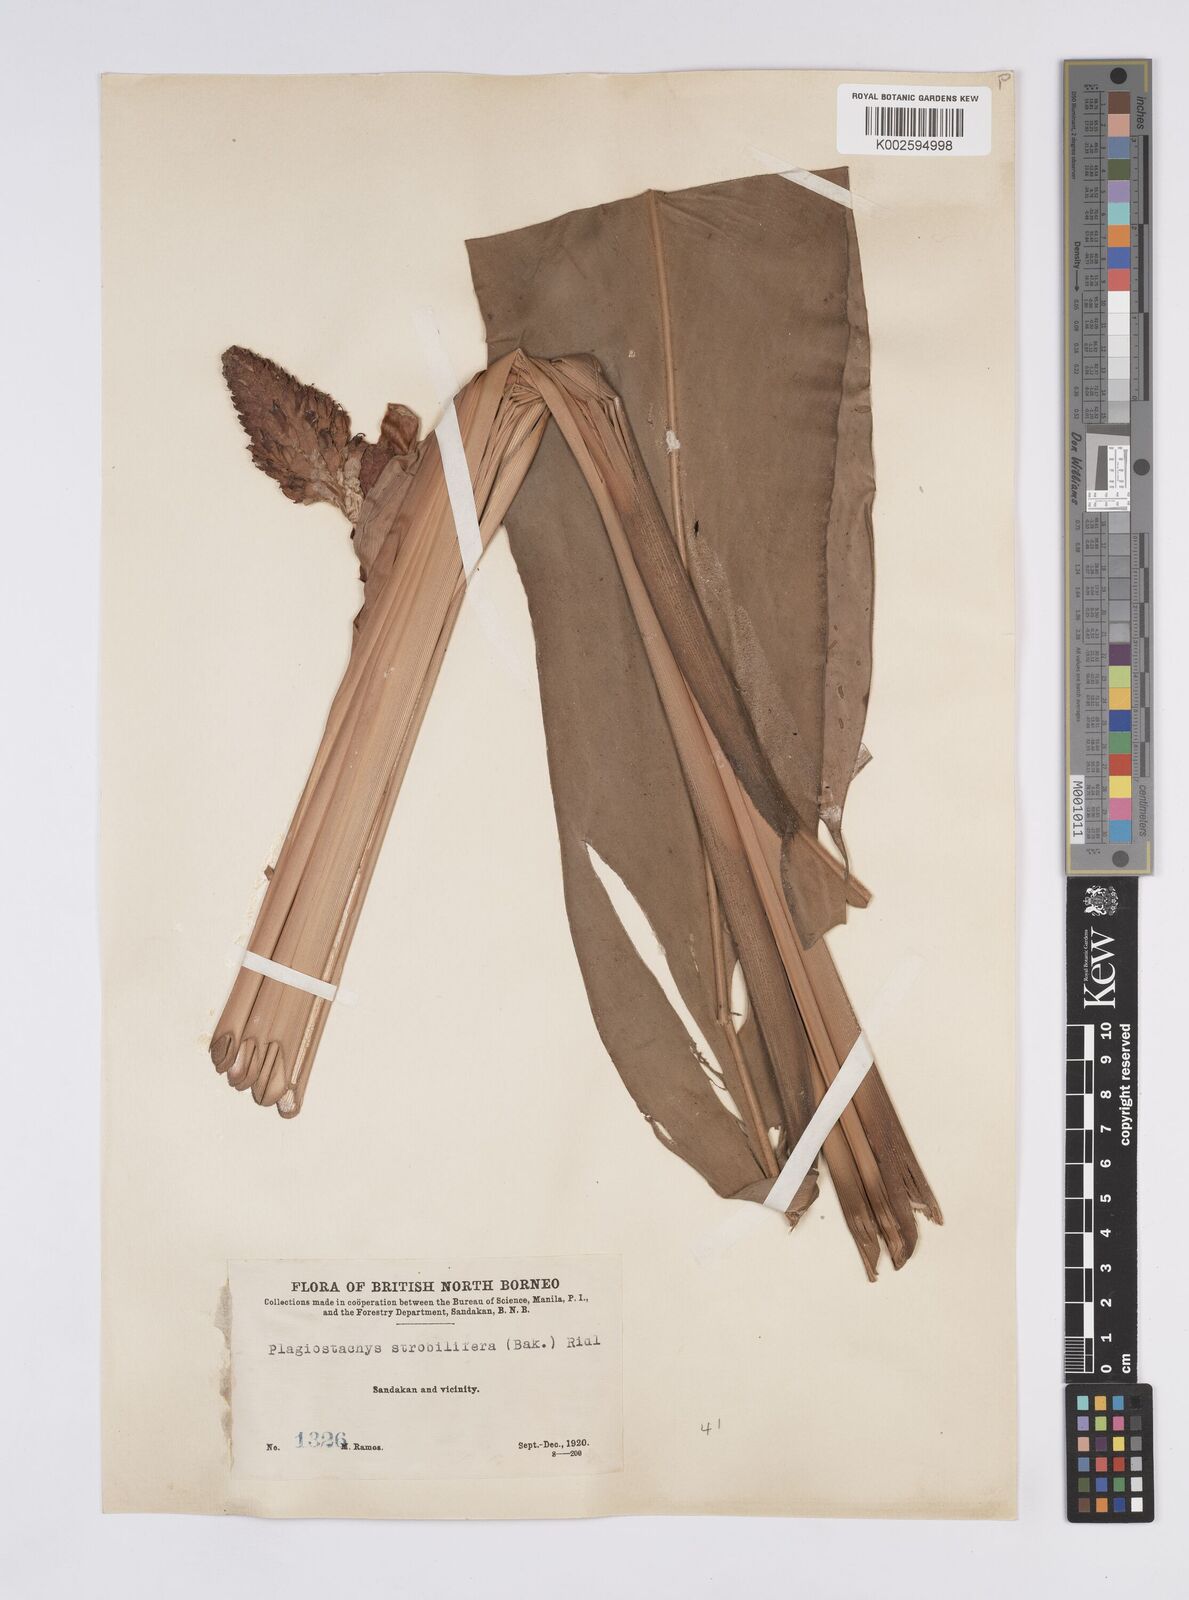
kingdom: Plantae
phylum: Tracheophyta
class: Liliopsida
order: Zingiberales
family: Zingiberaceae
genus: Plagiostachys
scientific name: Plagiostachys strobilifera
